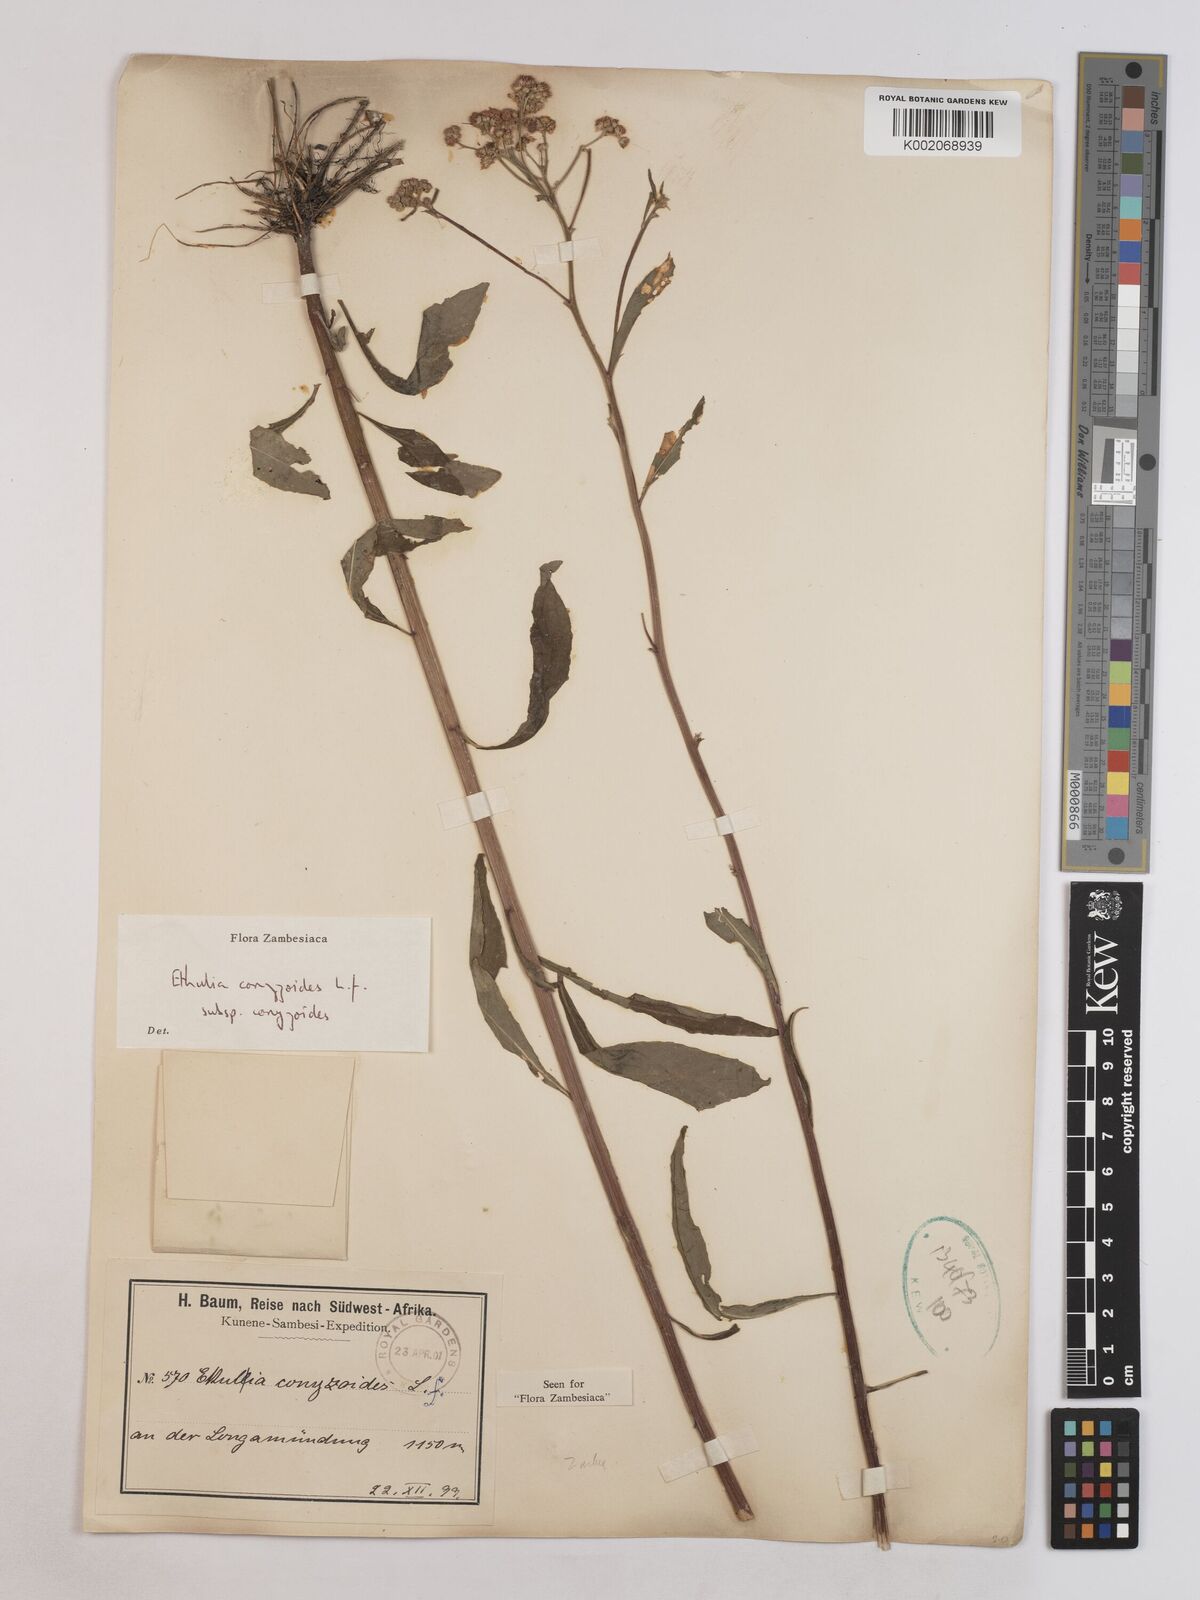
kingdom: Plantae
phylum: Tracheophyta
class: Magnoliopsida
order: Asterales
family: Asteraceae
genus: Ethulia
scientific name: Ethulia conyzoides
